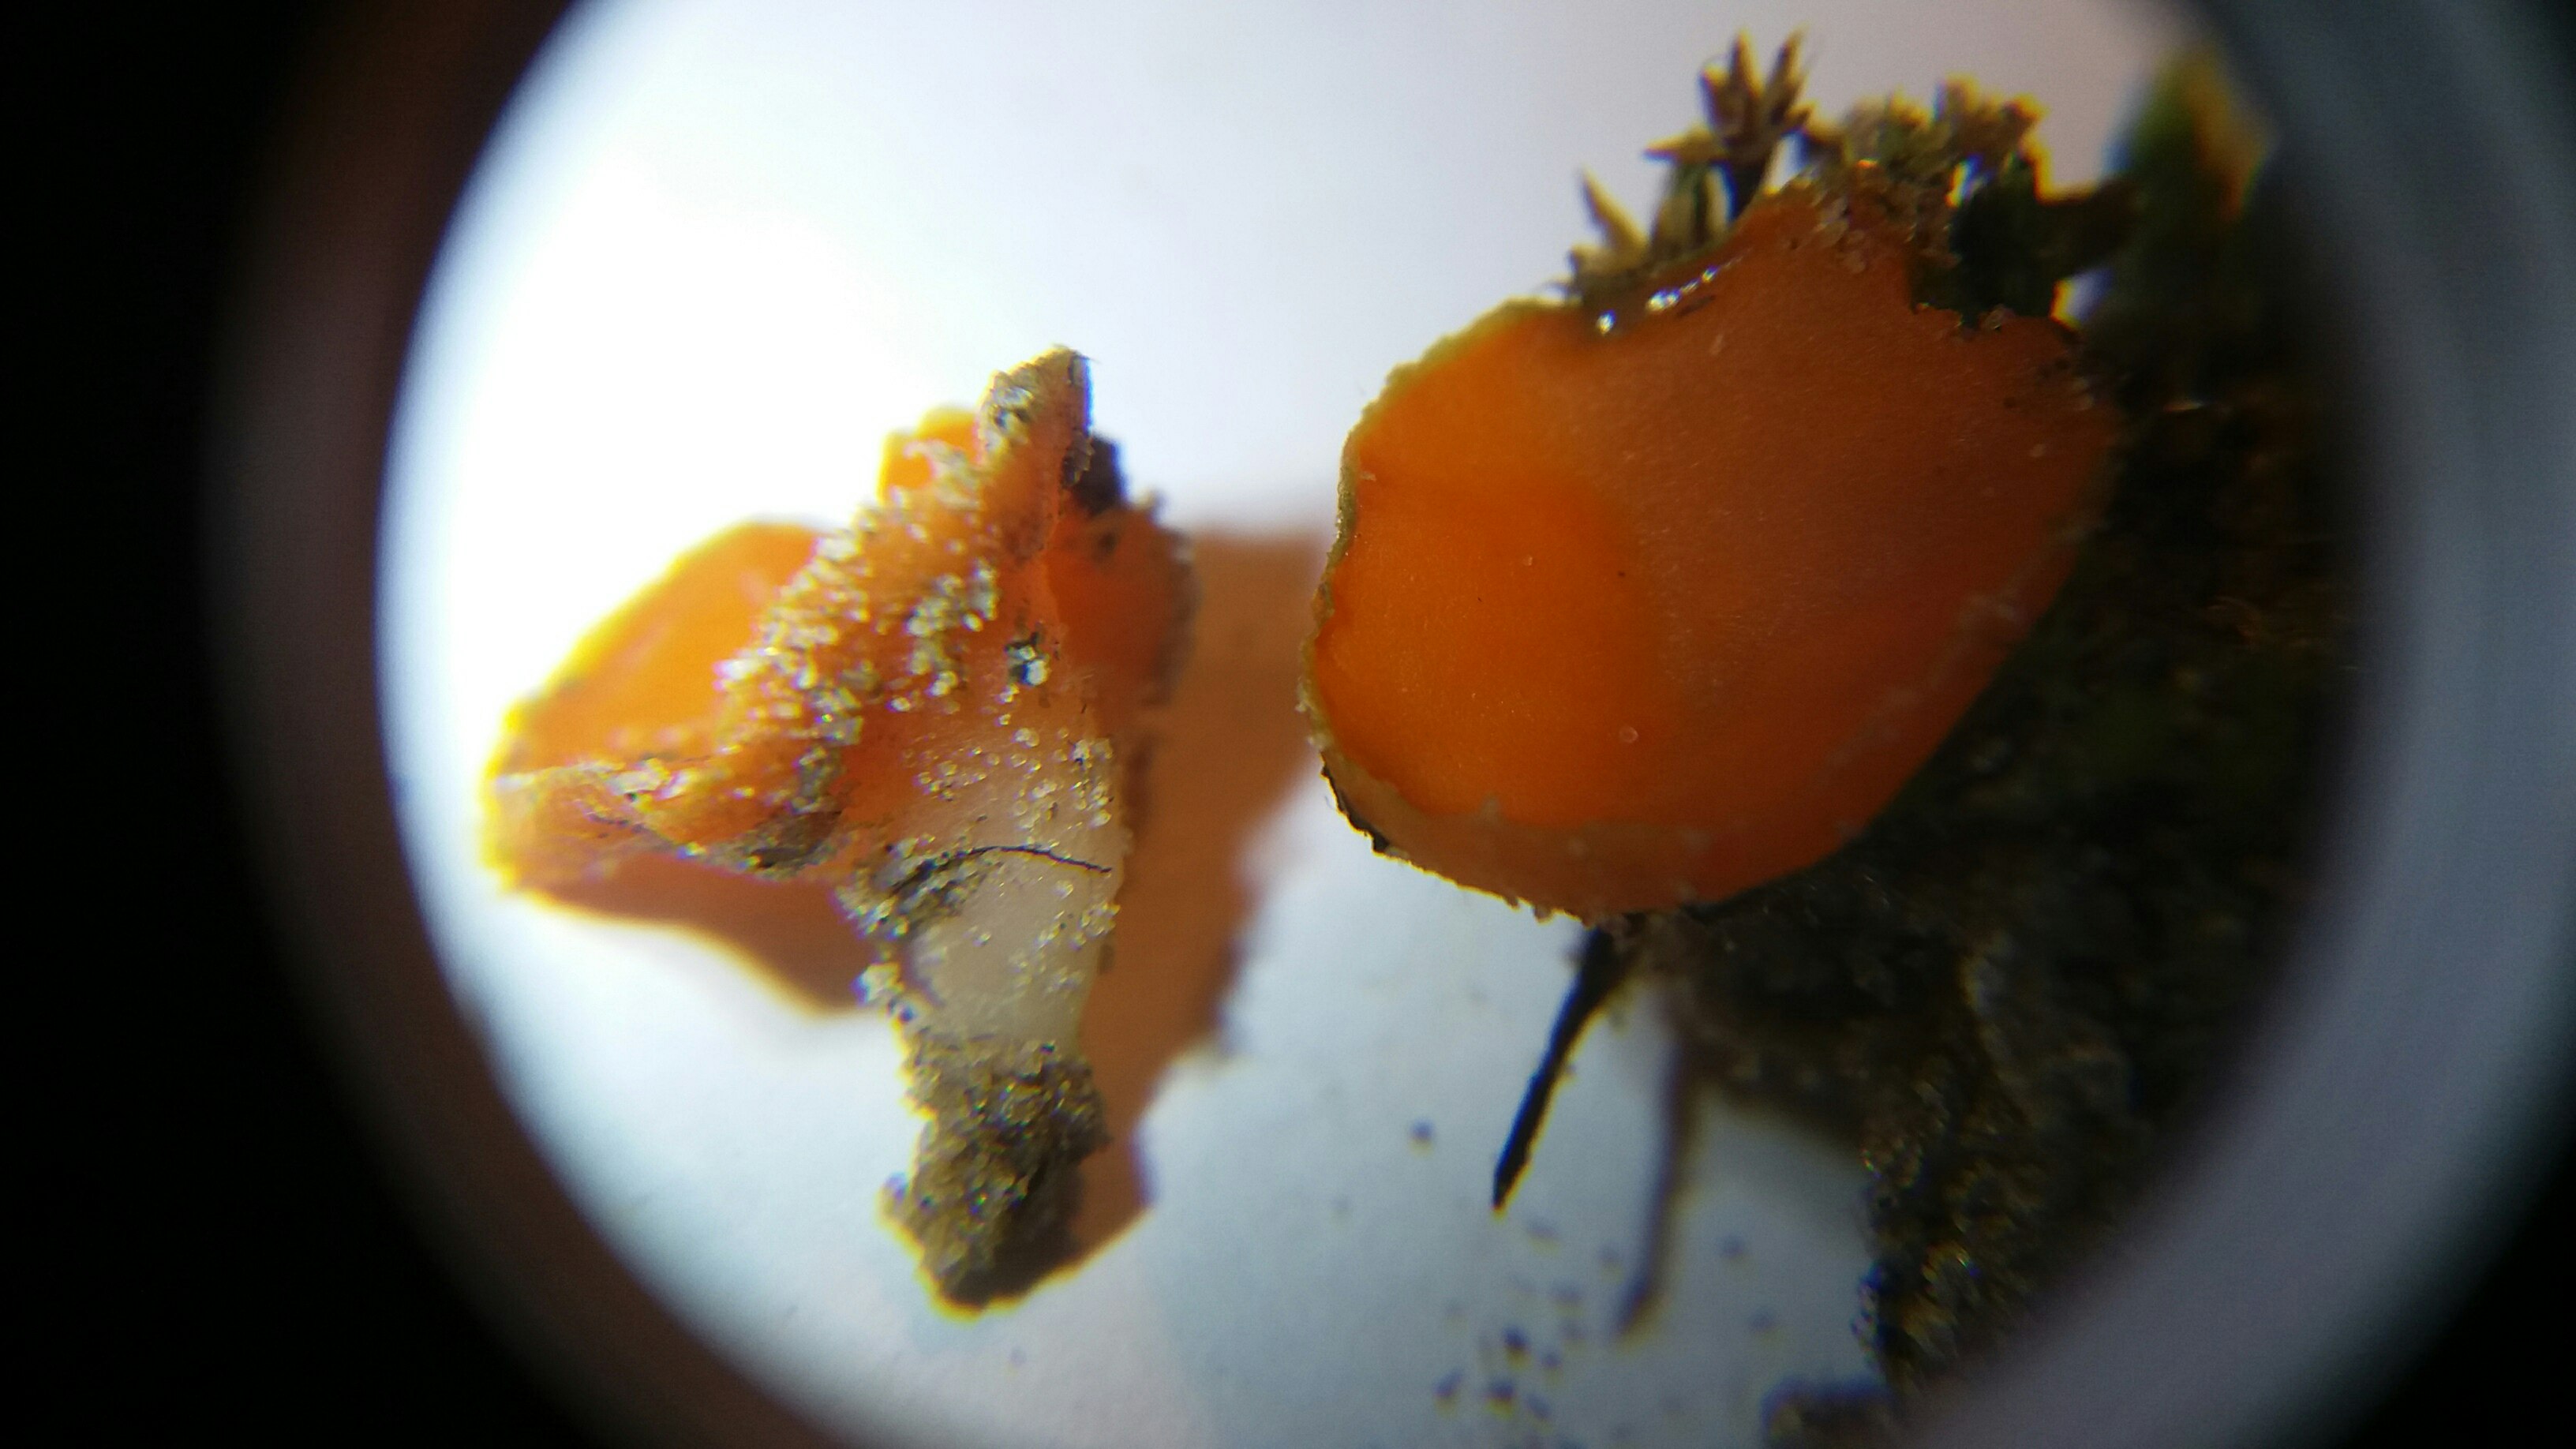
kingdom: Fungi
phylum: Ascomycota
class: Pezizomycetes
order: Pezizales
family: Pyronemataceae
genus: Neottiella
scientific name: Neottiella vivida
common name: sand-mosbæger
